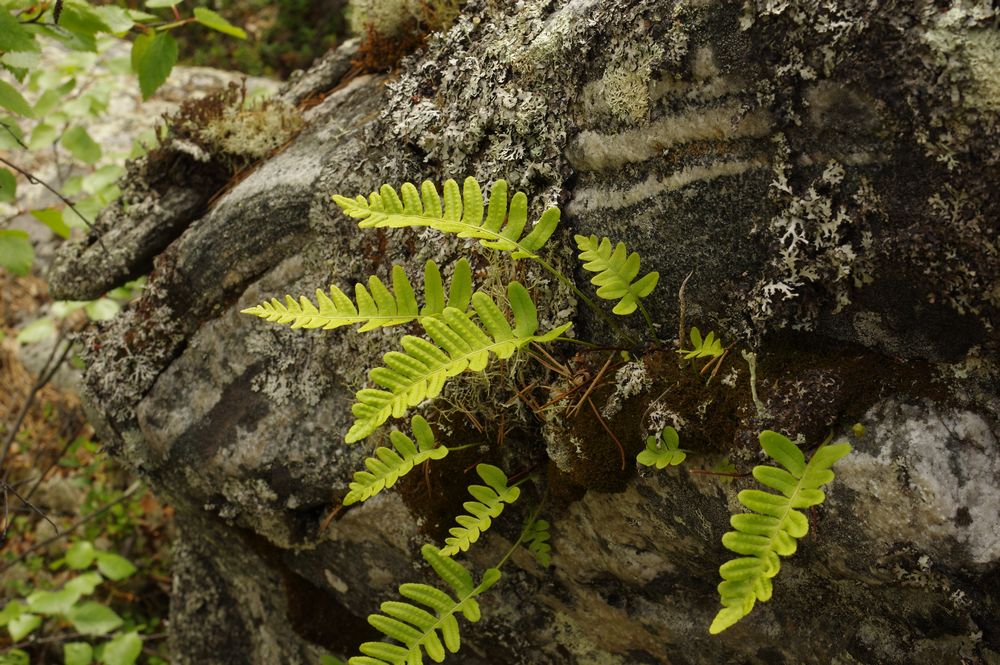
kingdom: Plantae
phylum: Tracheophyta
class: Polypodiopsida
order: Polypodiales
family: Polypodiaceae
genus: Polypodium
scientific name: Polypodium vulgare
